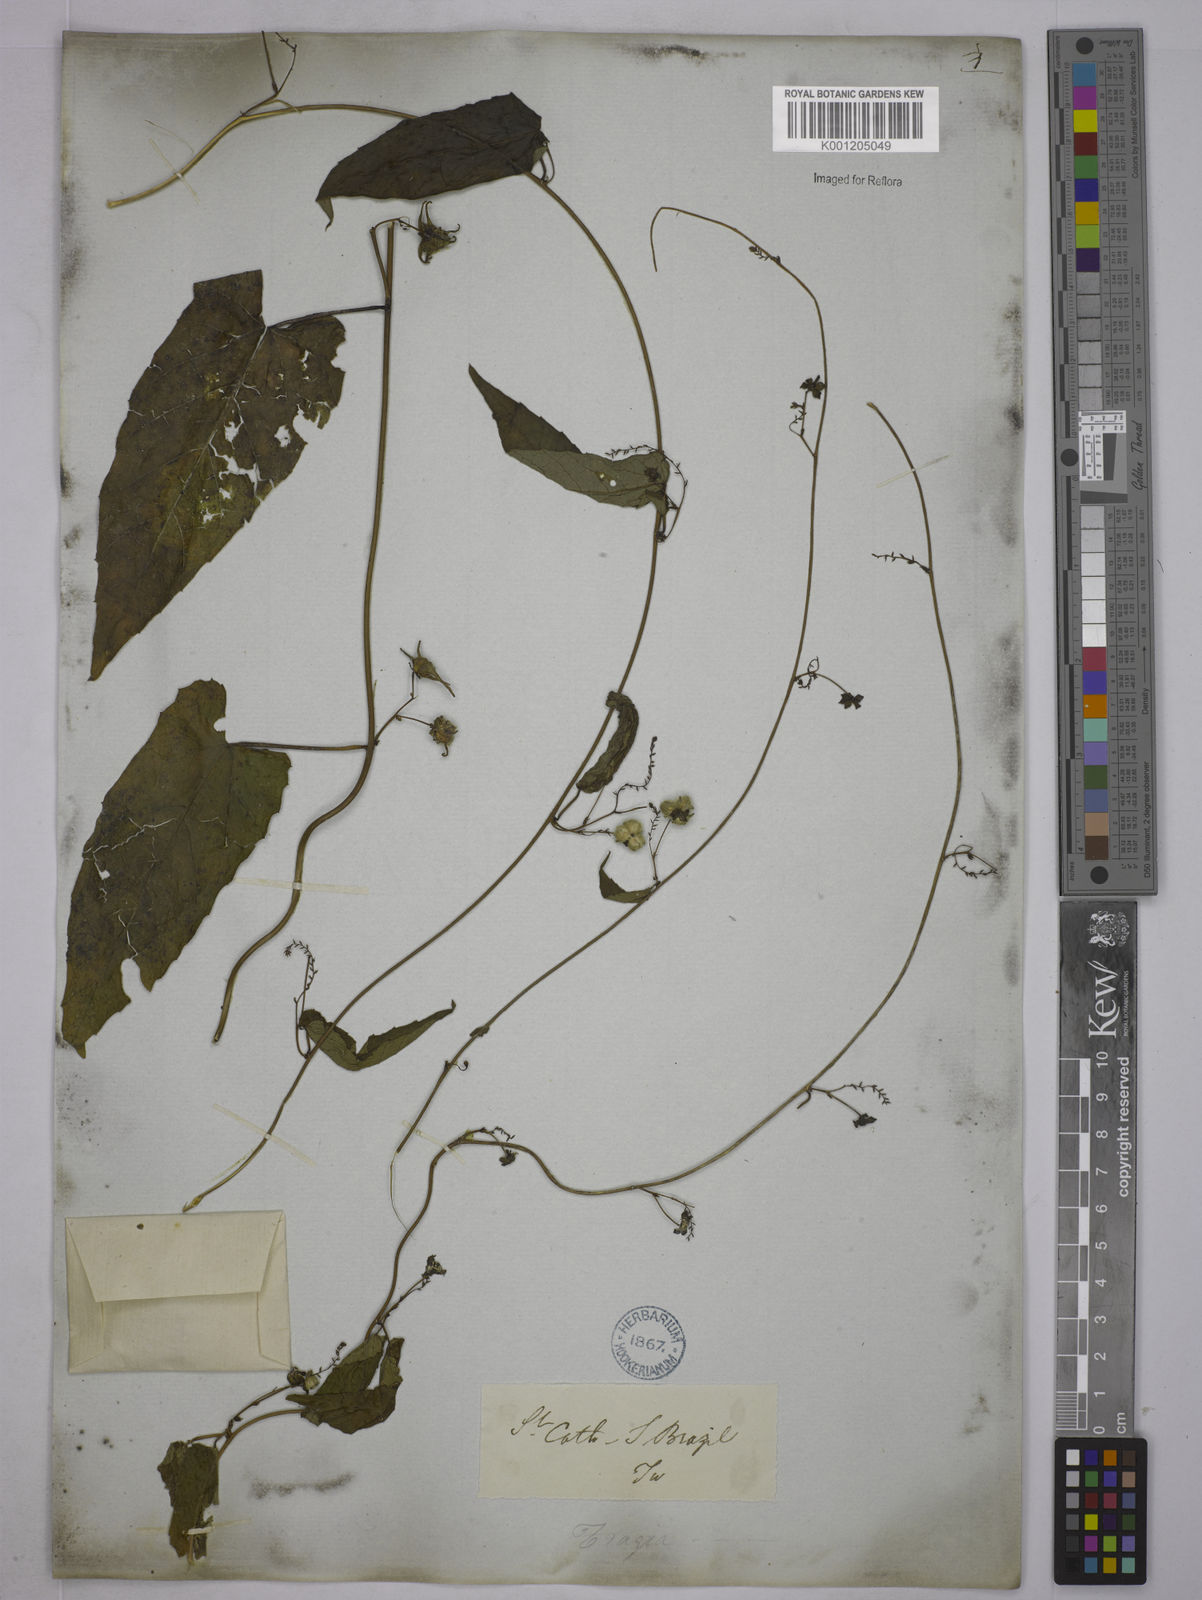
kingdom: Plantae
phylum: Tracheophyta
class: Magnoliopsida
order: Malpighiales
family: Euphorbiaceae
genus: Tragia
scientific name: Tragia volubilis
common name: Twining cow-itch
